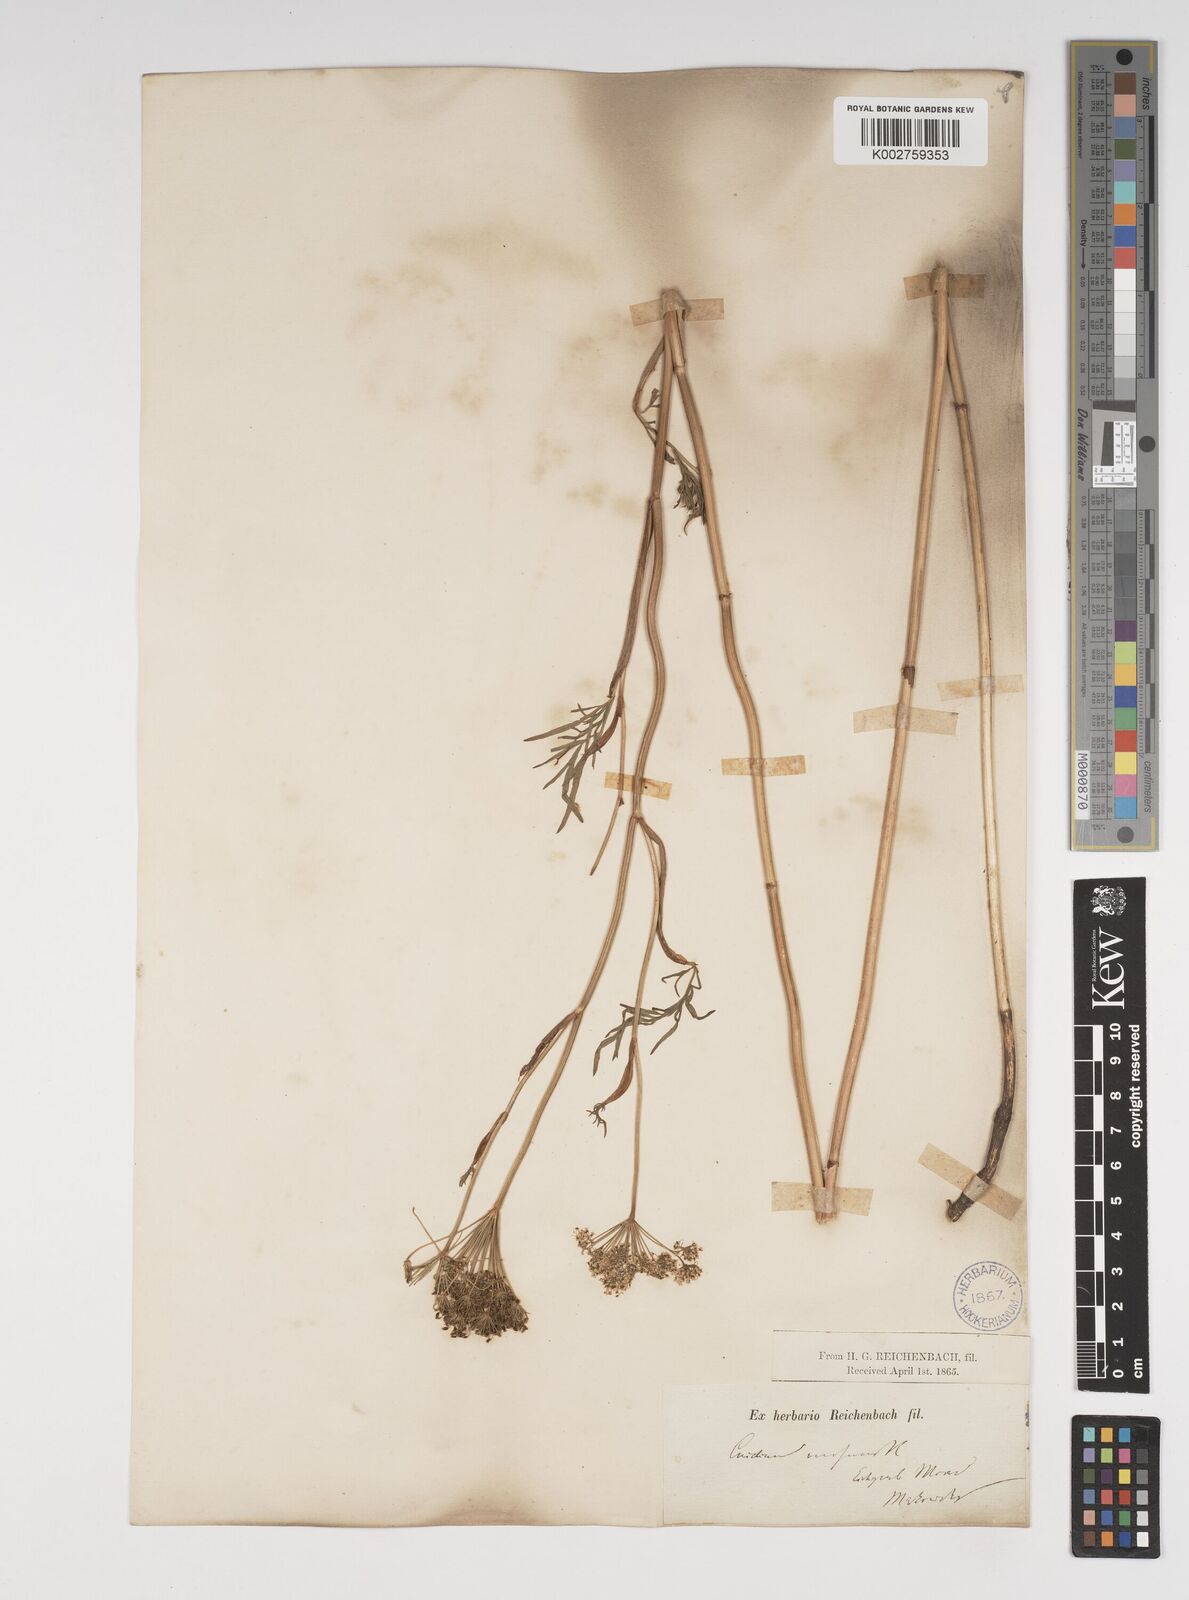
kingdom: Plantae
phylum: Tracheophyta
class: Magnoliopsida
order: Apiales
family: Apiaceae
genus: Kadenia
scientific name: Kadenia dubia
